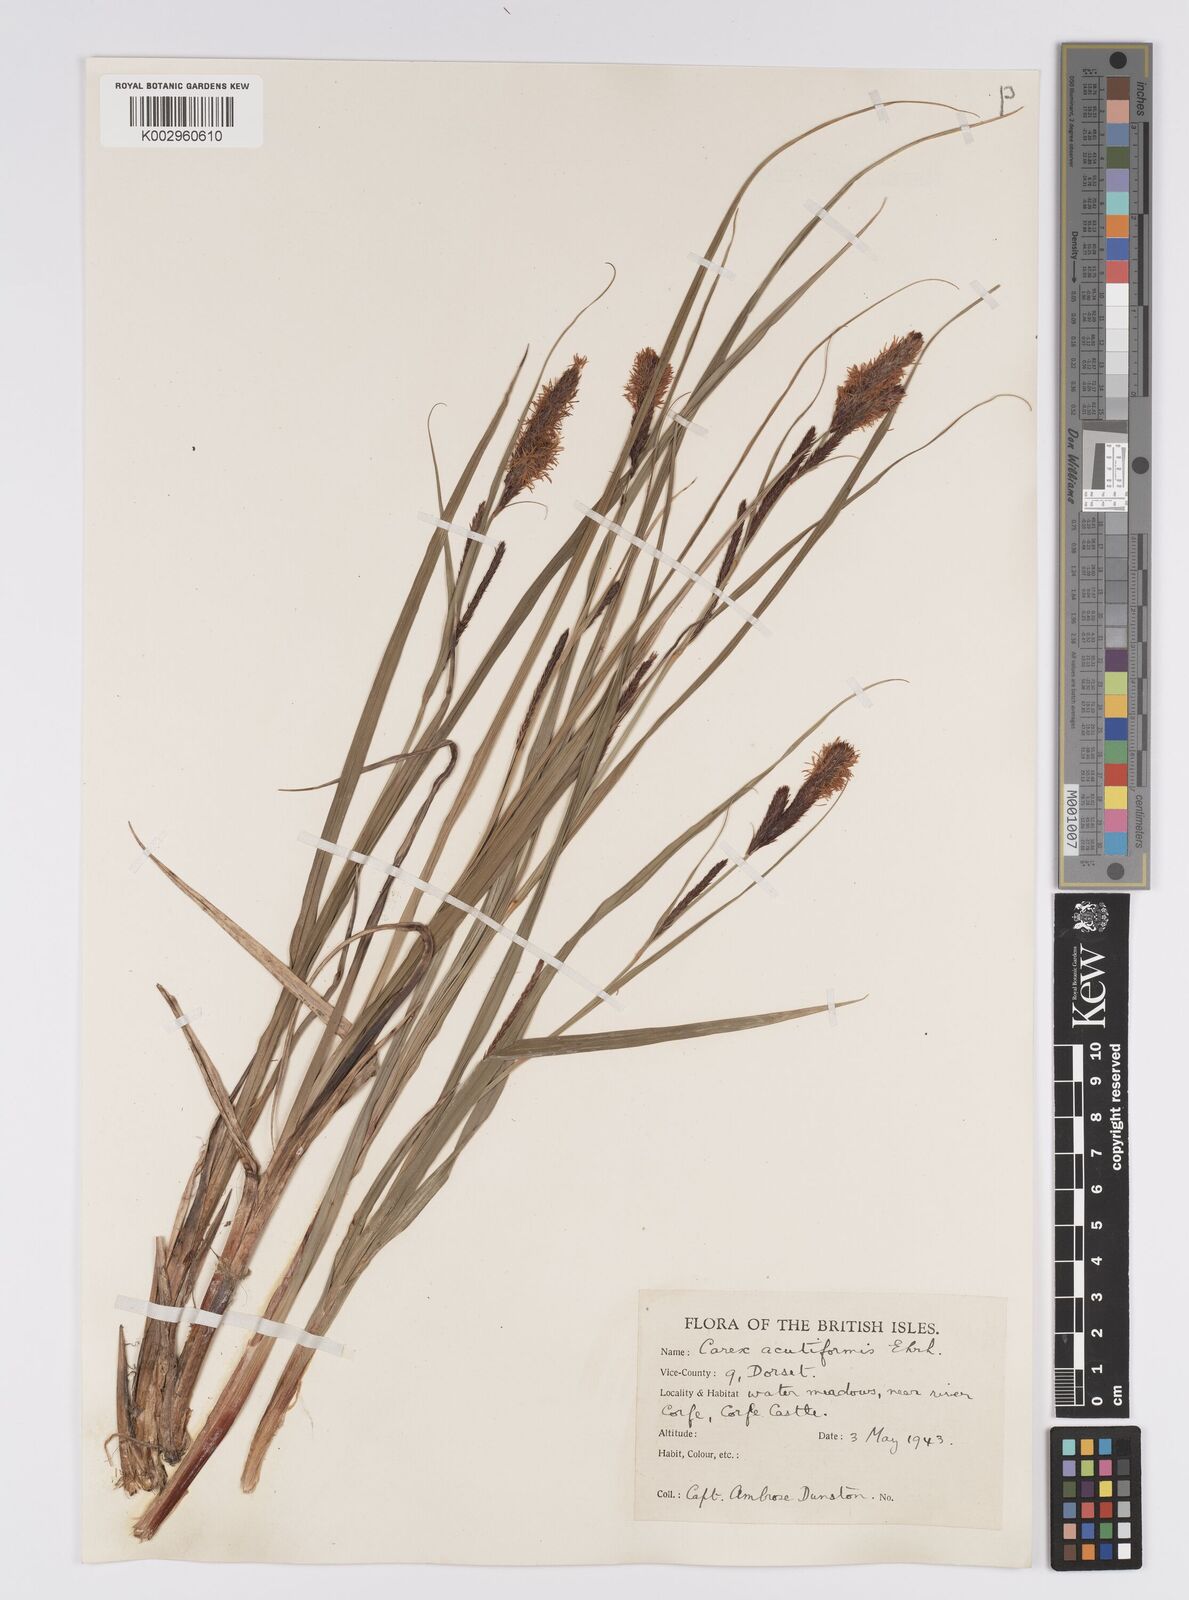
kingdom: Plantae
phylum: Tracheophyta
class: Liliopsida
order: Poales
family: Cyperaceae
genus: Carex
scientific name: Carex acutiformis
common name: Lesser pond-sedge
